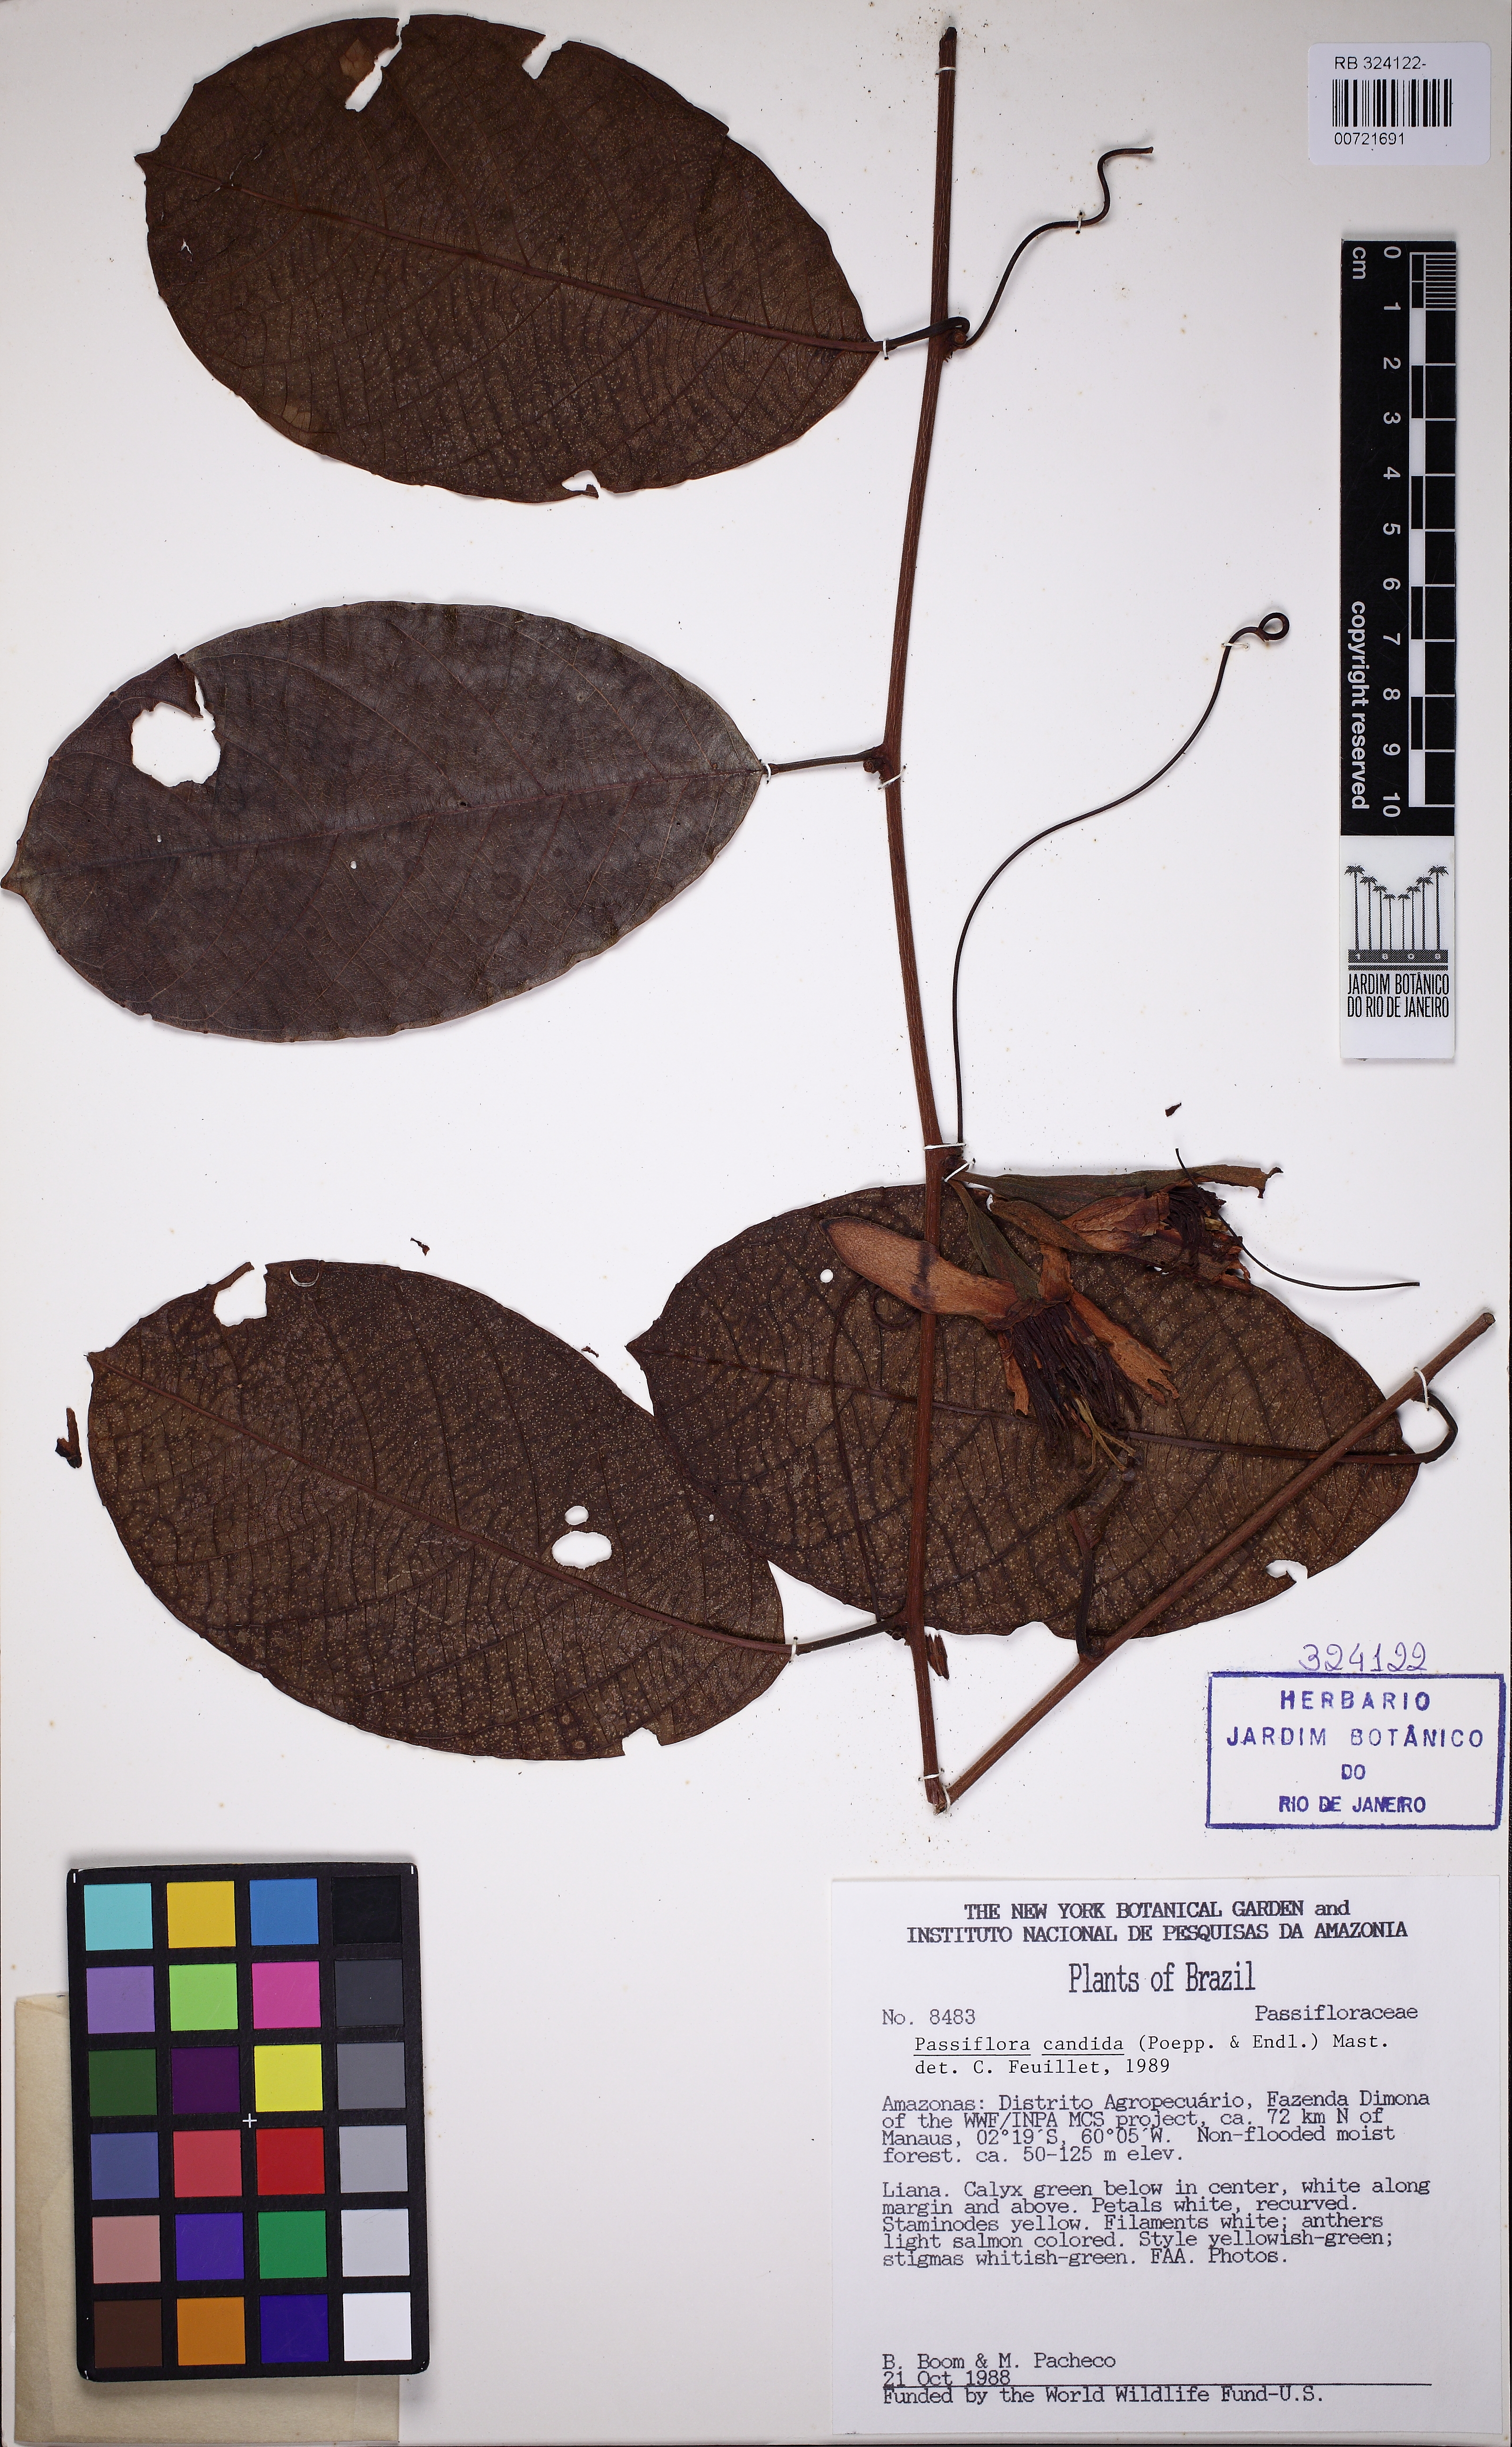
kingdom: Plantae
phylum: Tracheophyta
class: Magnoliopsida
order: Malpighiales
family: Passifloraceae
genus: Passiflora
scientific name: Passiflora candida
